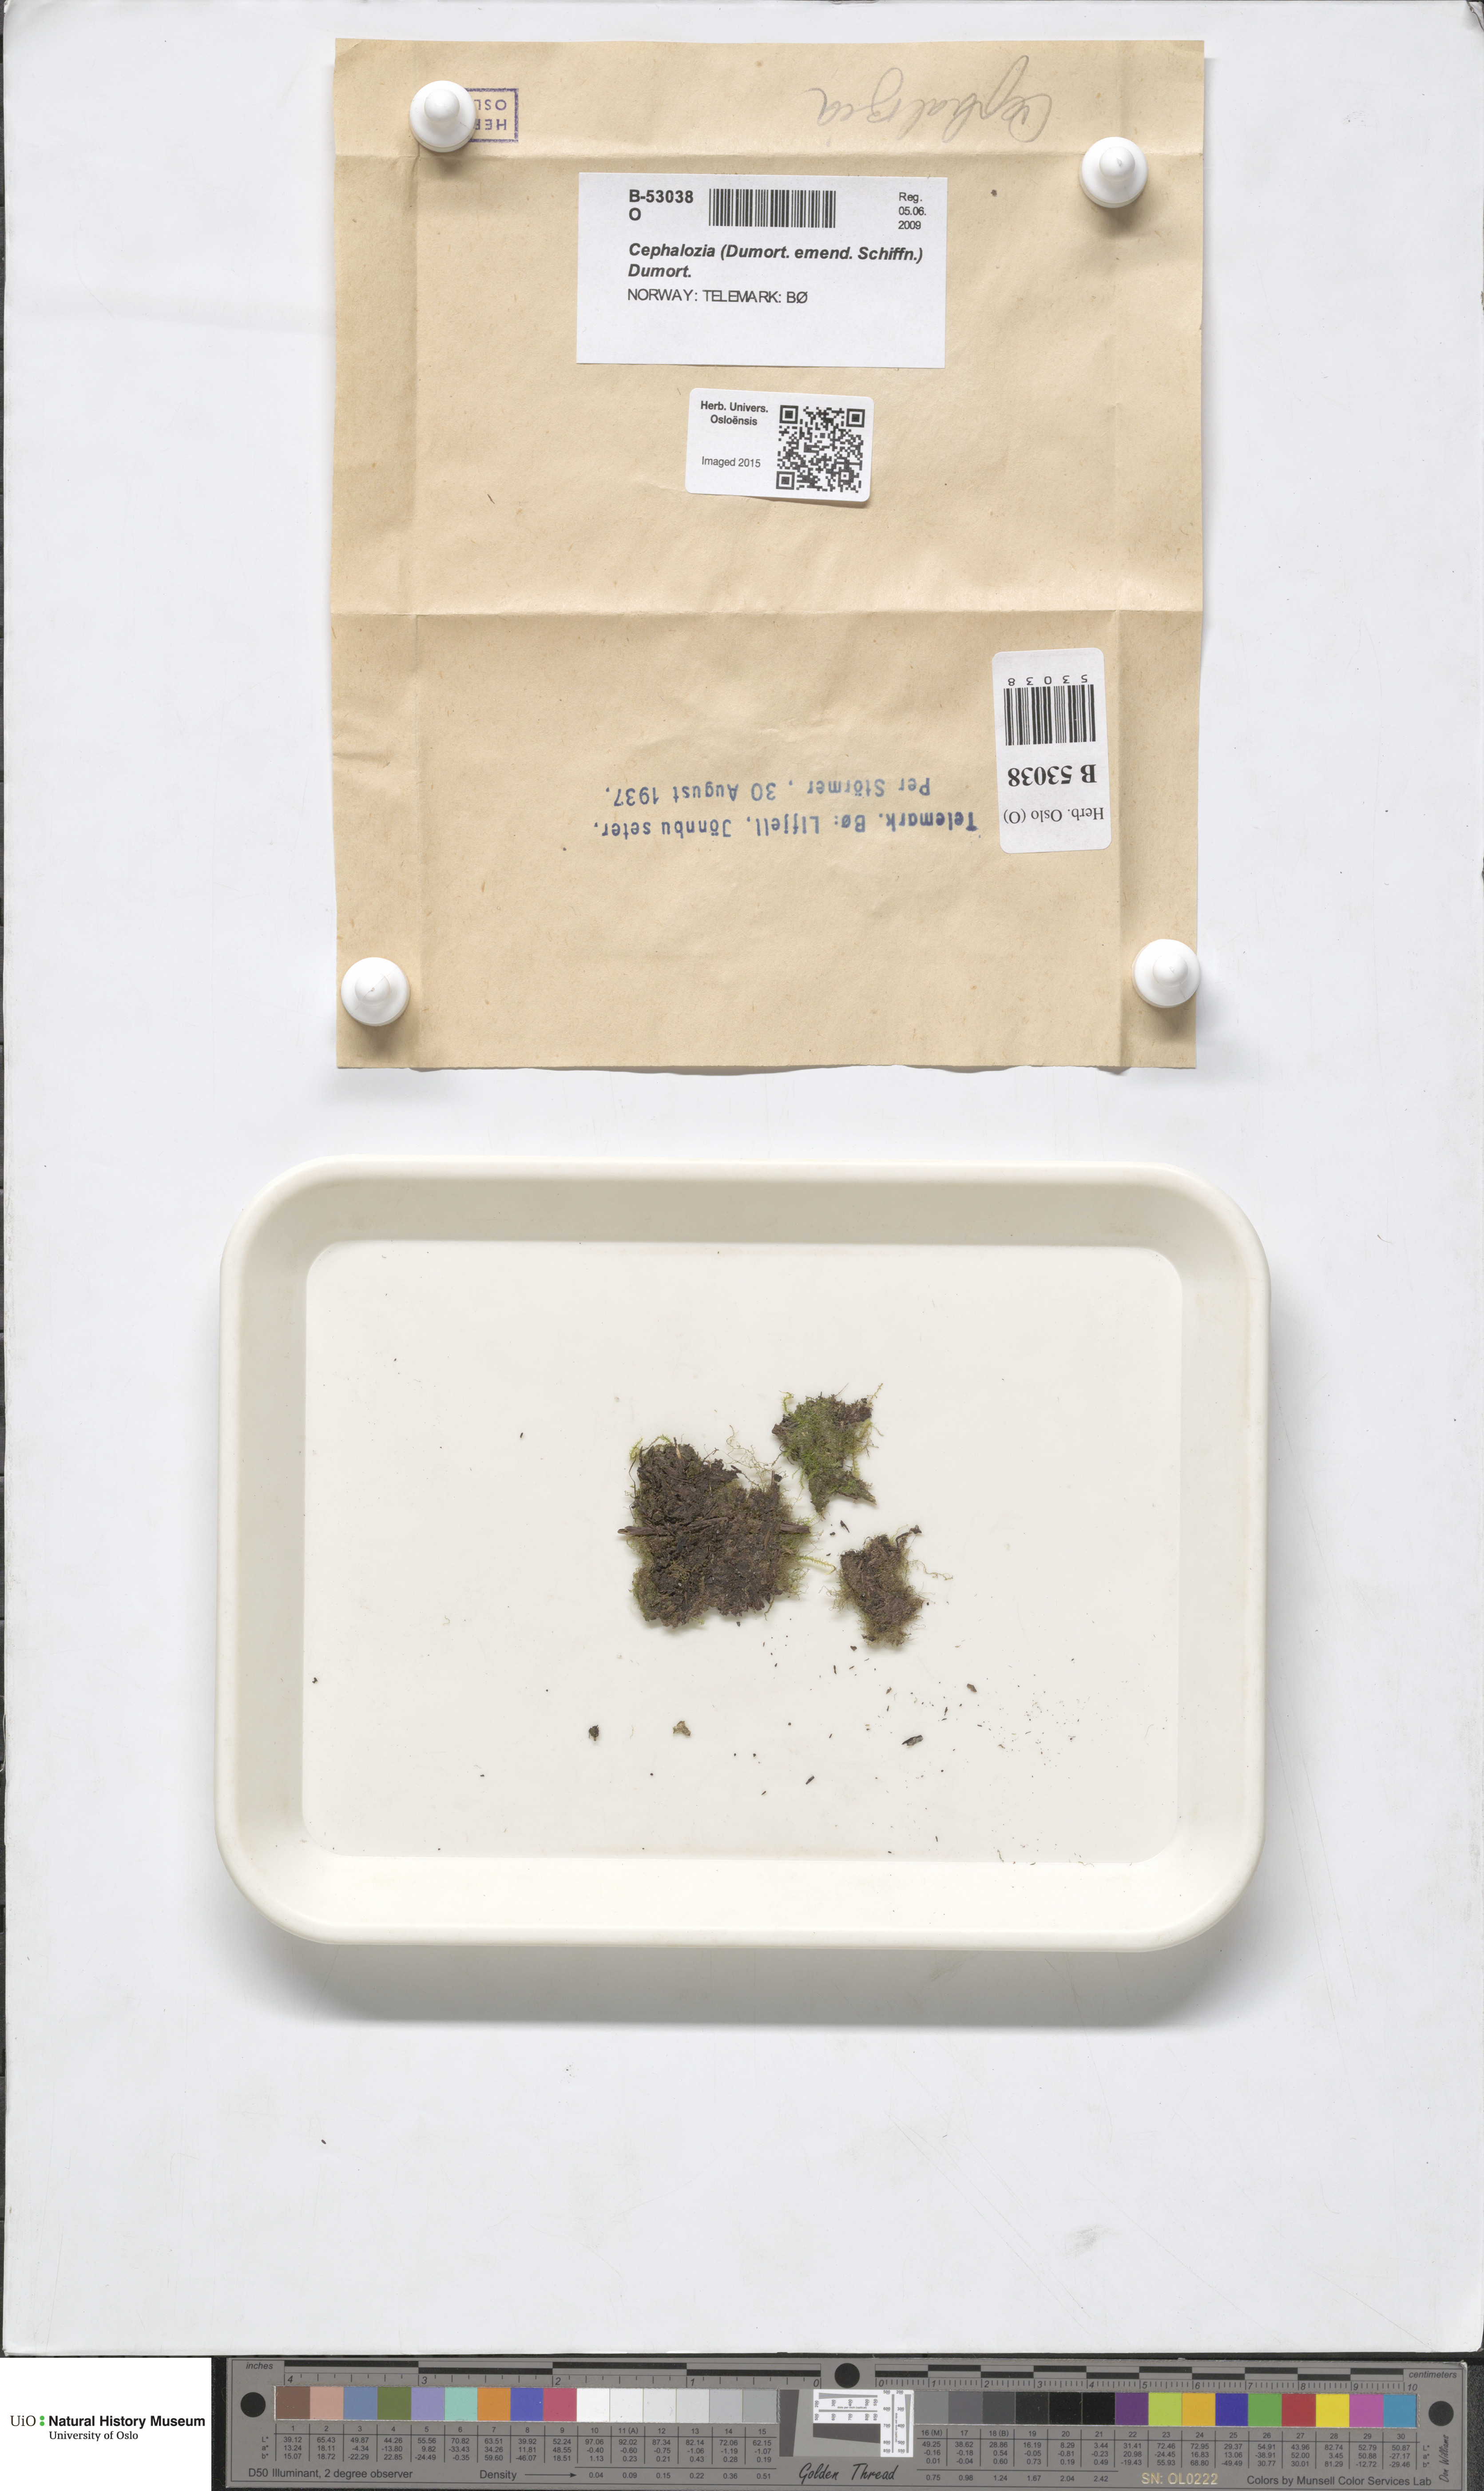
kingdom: Plantae
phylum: Marchantiophyta
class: Jungermanniopsida
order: Jungermanniales
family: Cephaloziaceae
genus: Cephalozia
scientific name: Cephalozia
